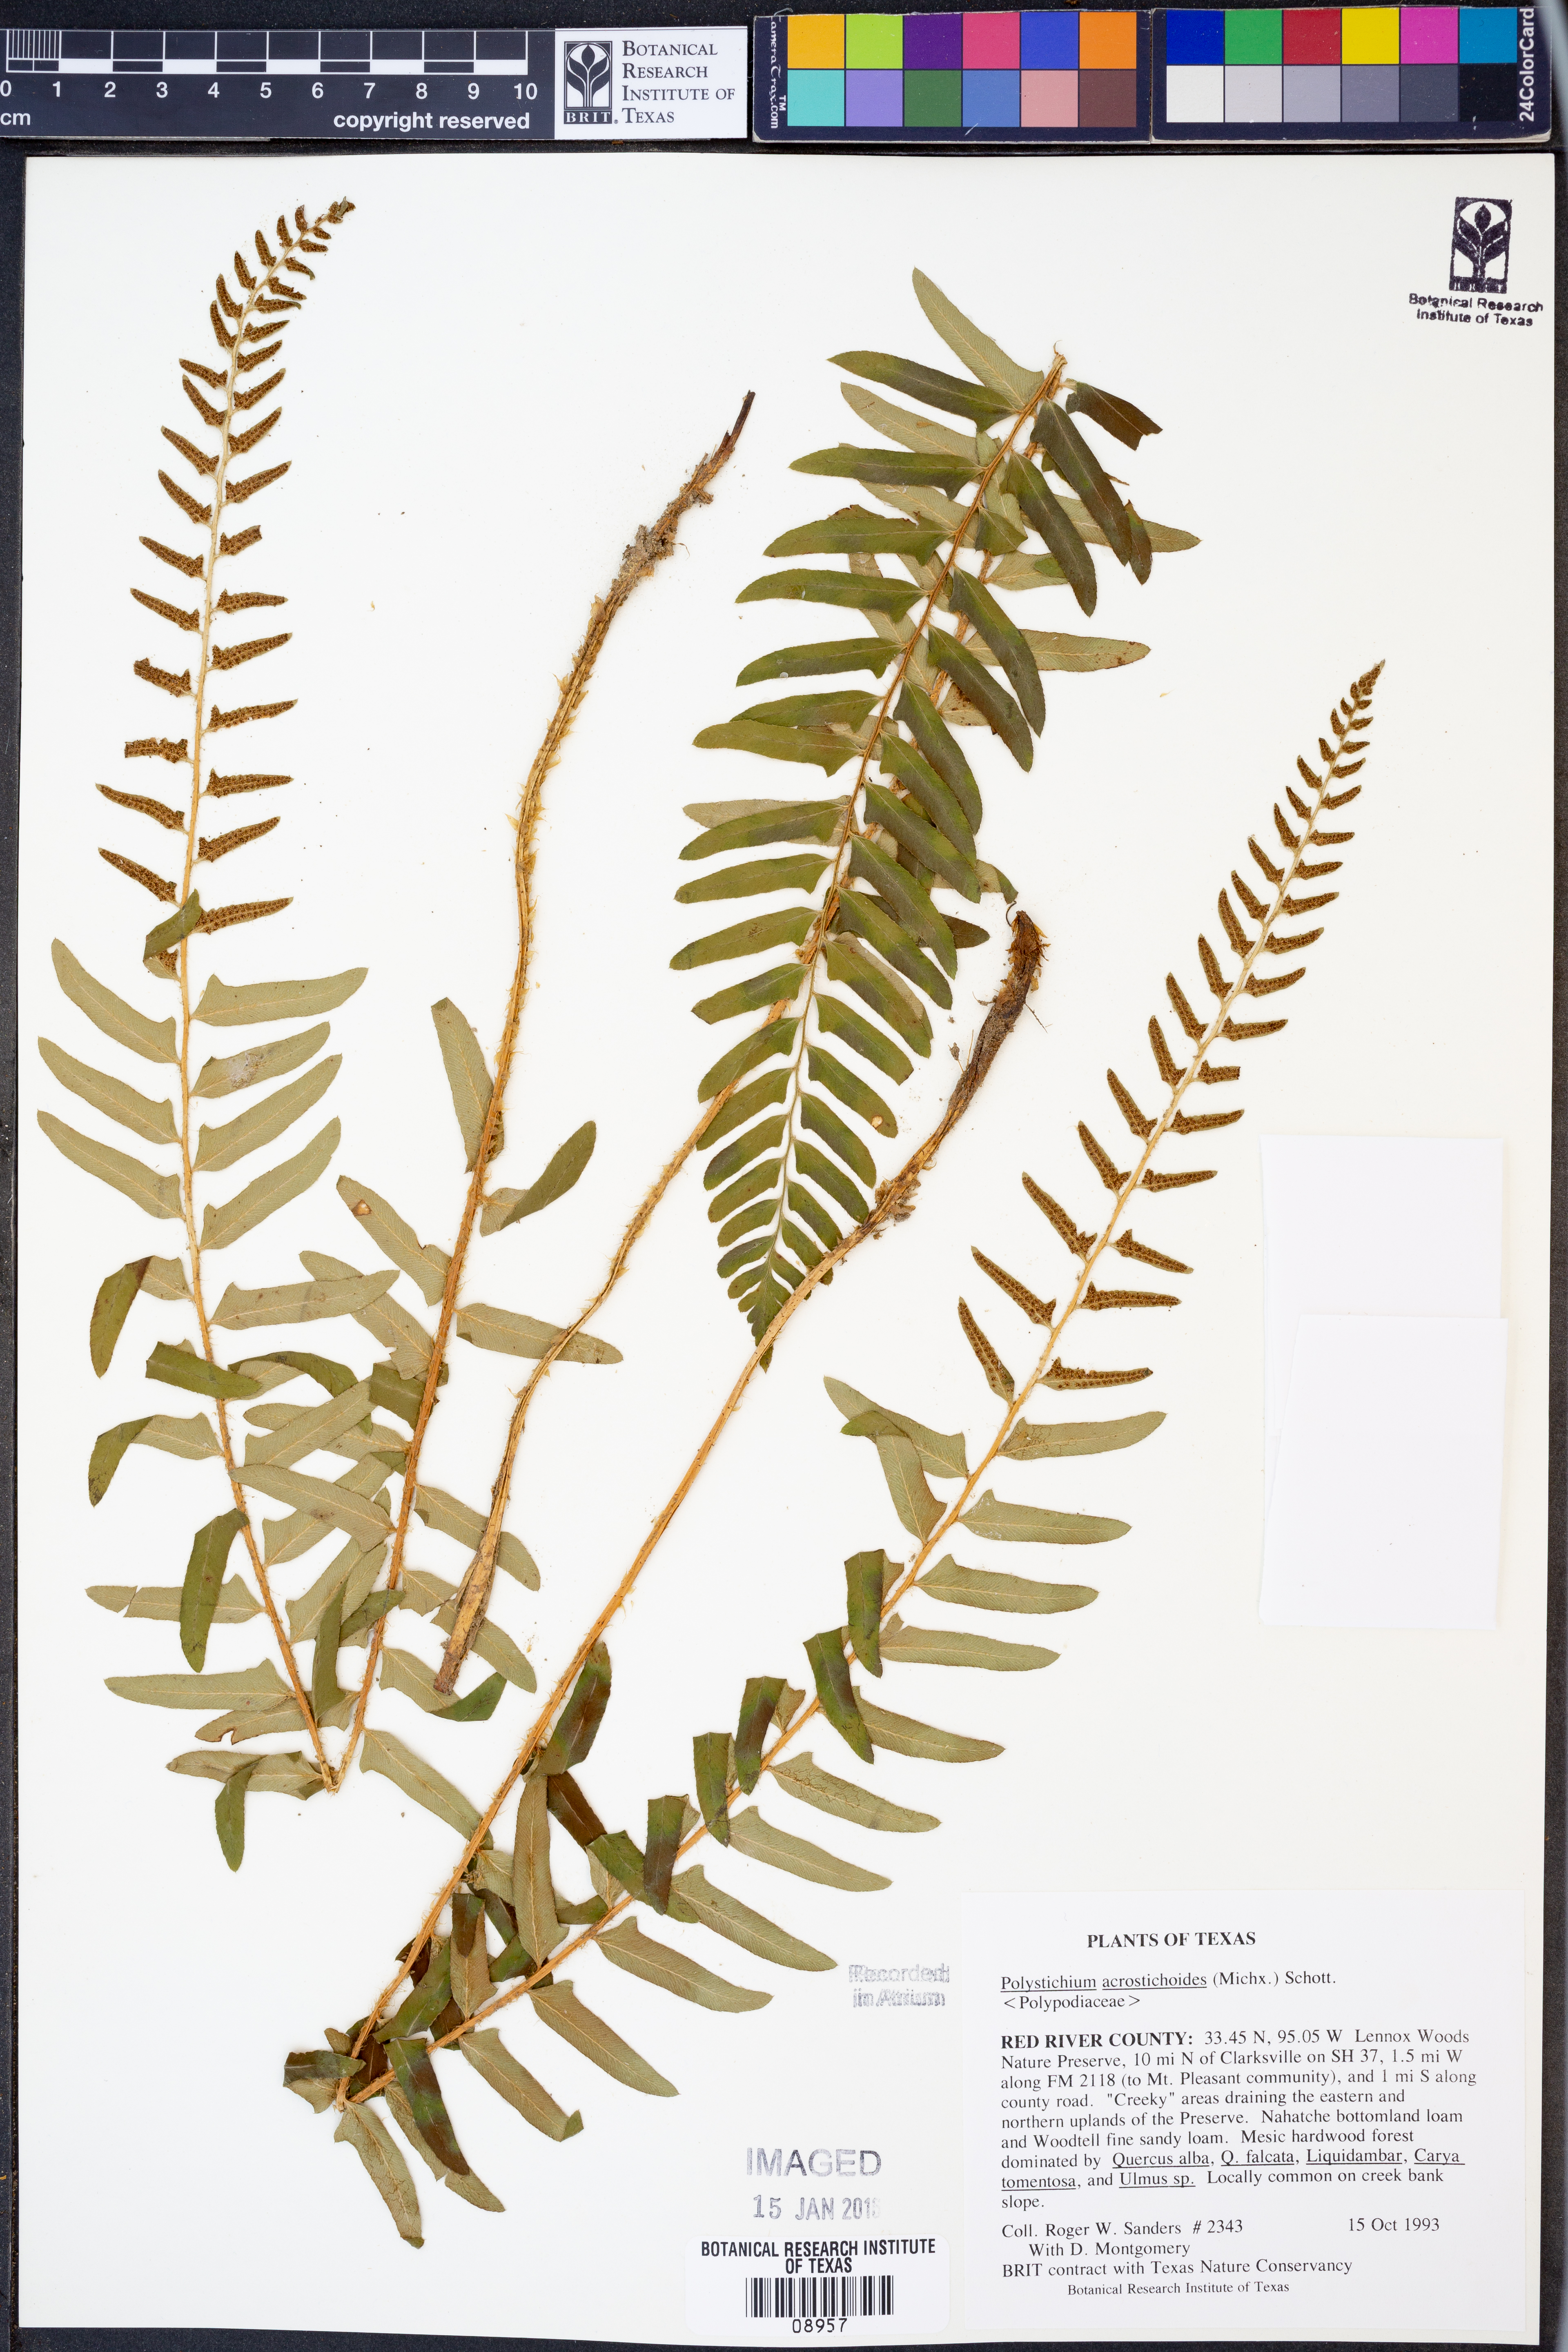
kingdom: Plantae
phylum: Tracheophyta
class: Polypodiopsida
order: Polypodiales
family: Dryopteridaceae
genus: Polystichum
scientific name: Polystichum acrostichoides
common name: Christmas fern
